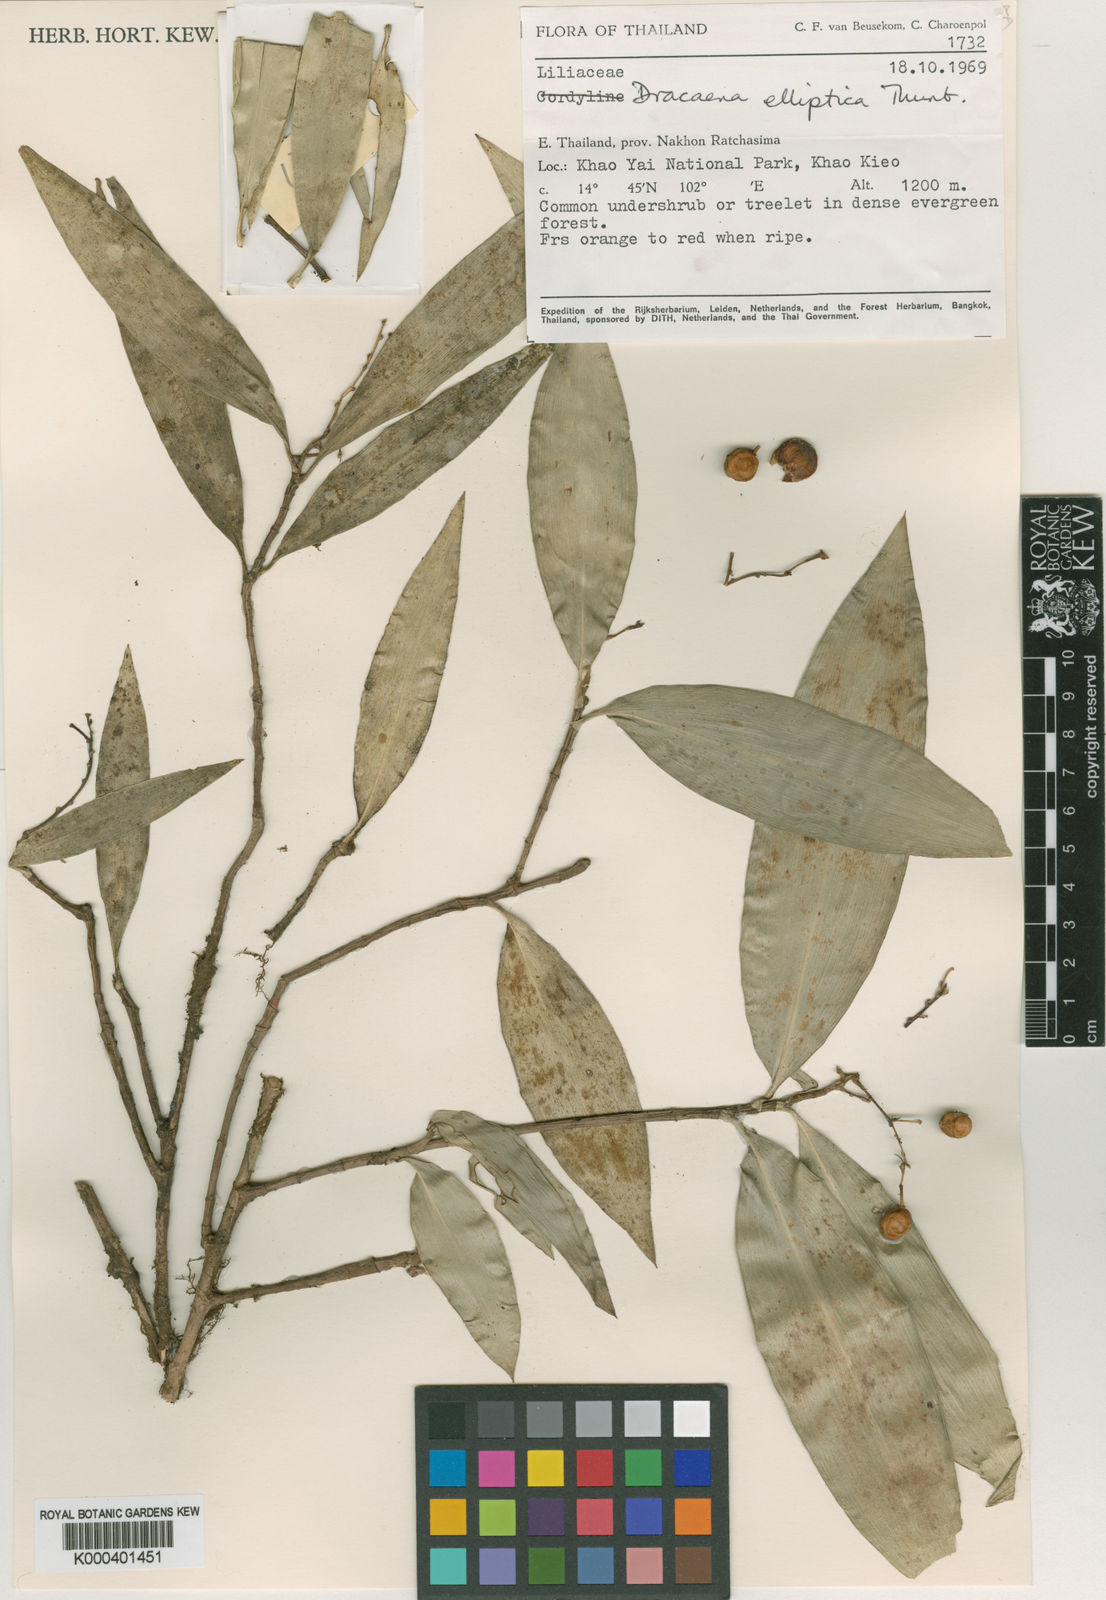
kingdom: Plantae
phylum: Tracheophyta
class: Liliopsida
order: Asparagales
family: Asparagaceae
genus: Dracaena
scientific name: Dracaena elliptica
